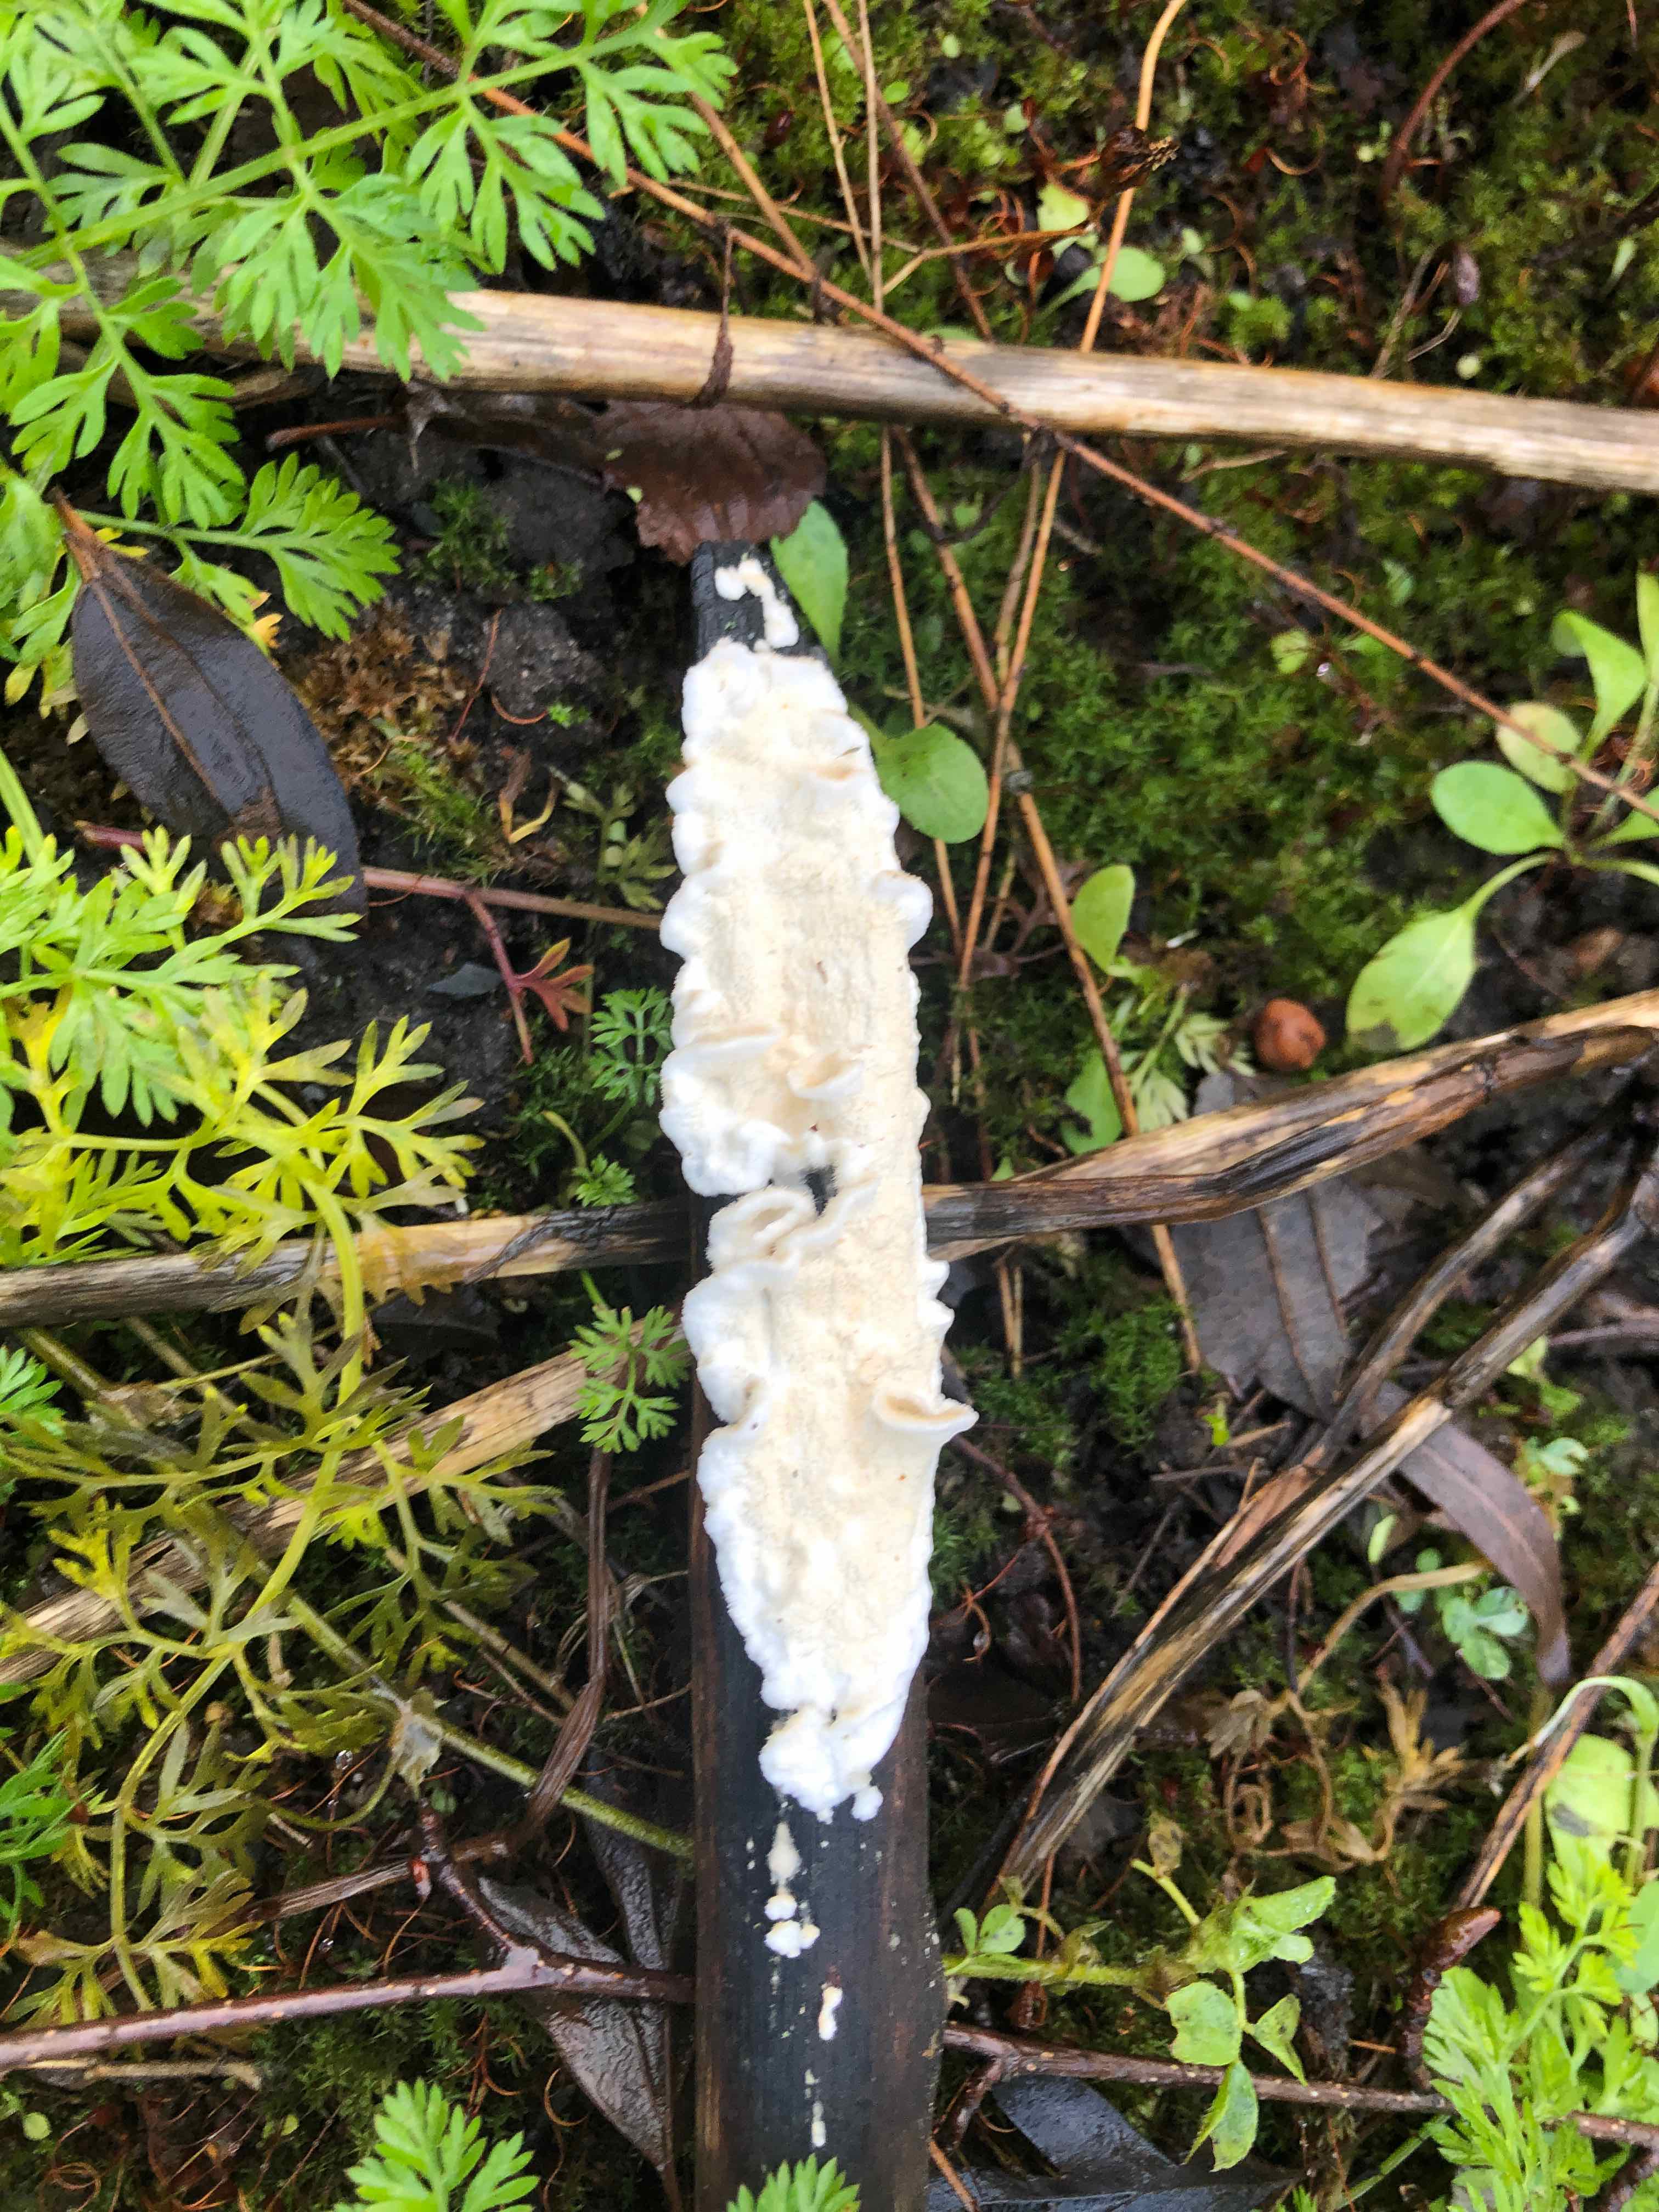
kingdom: Fungi
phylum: Basidiomycota
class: Agaricomycetes
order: Polyporales
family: Irpicaceae
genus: Byssomerulius
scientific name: Byssomerulius corium
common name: læder-åresvamp
